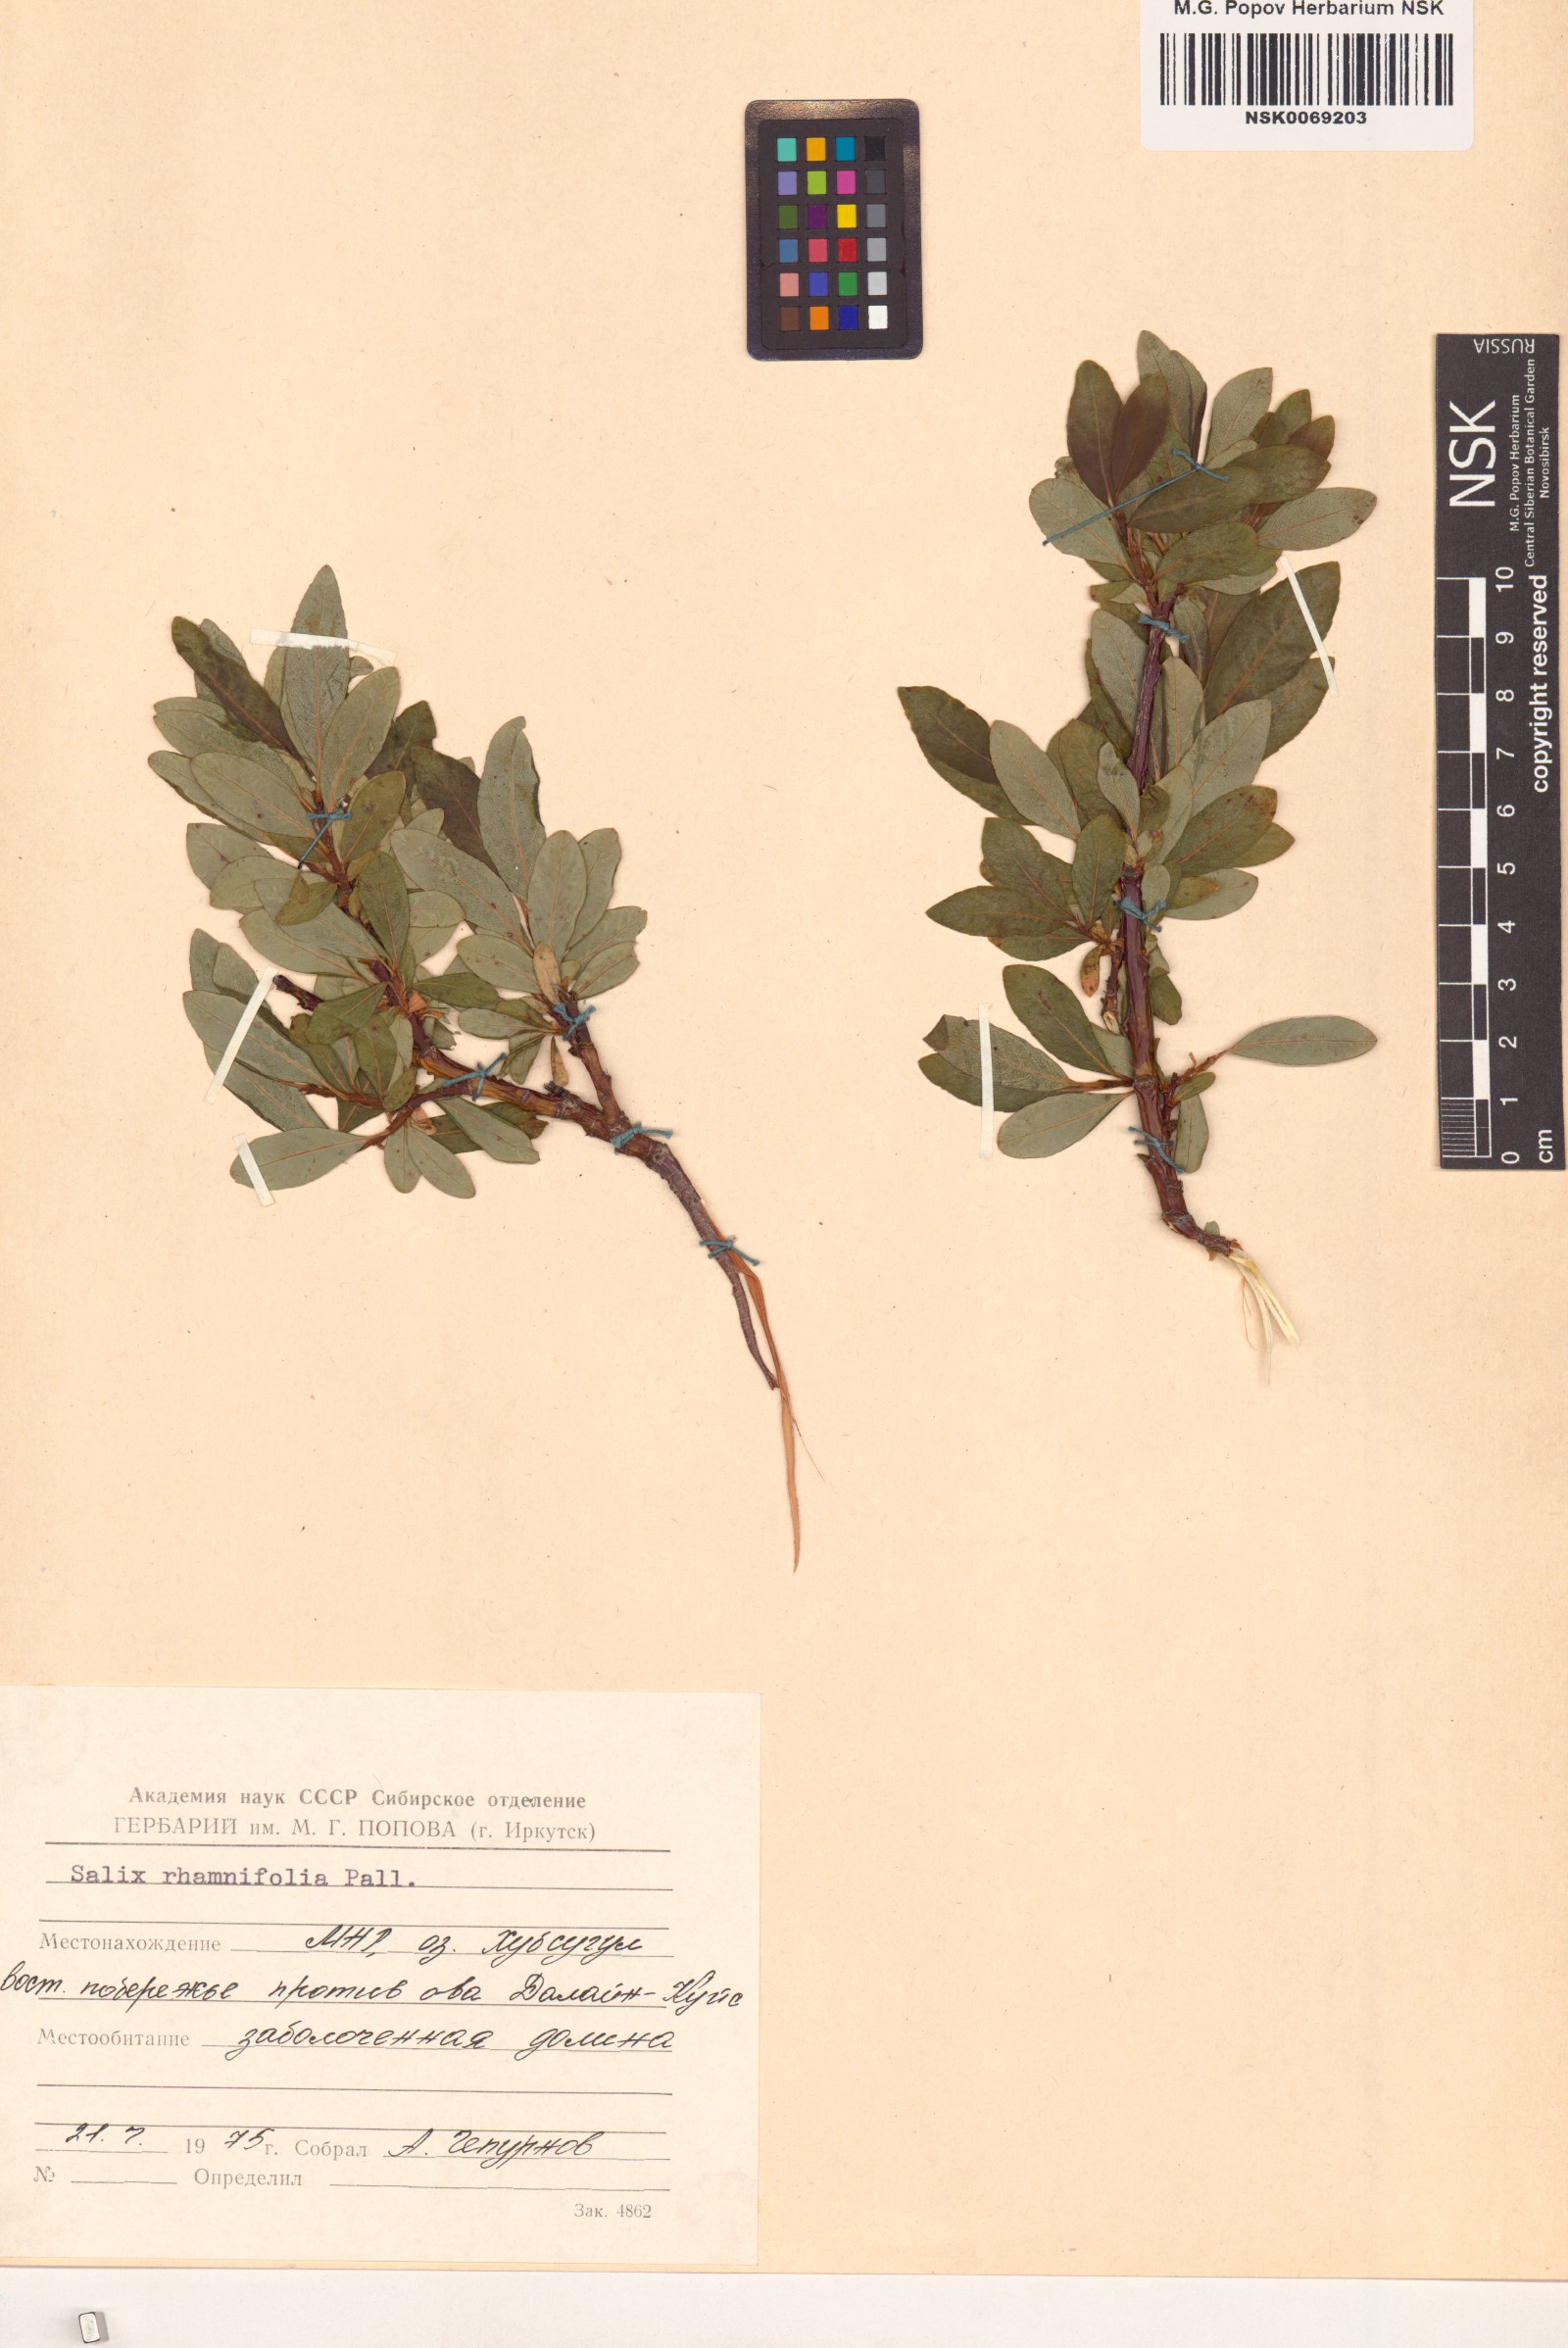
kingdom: Plantae
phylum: Tracheophyta
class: Magnoliopsida
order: Malpighiales
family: Salicaceae
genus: Salix
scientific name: Salix rhamnifolia
